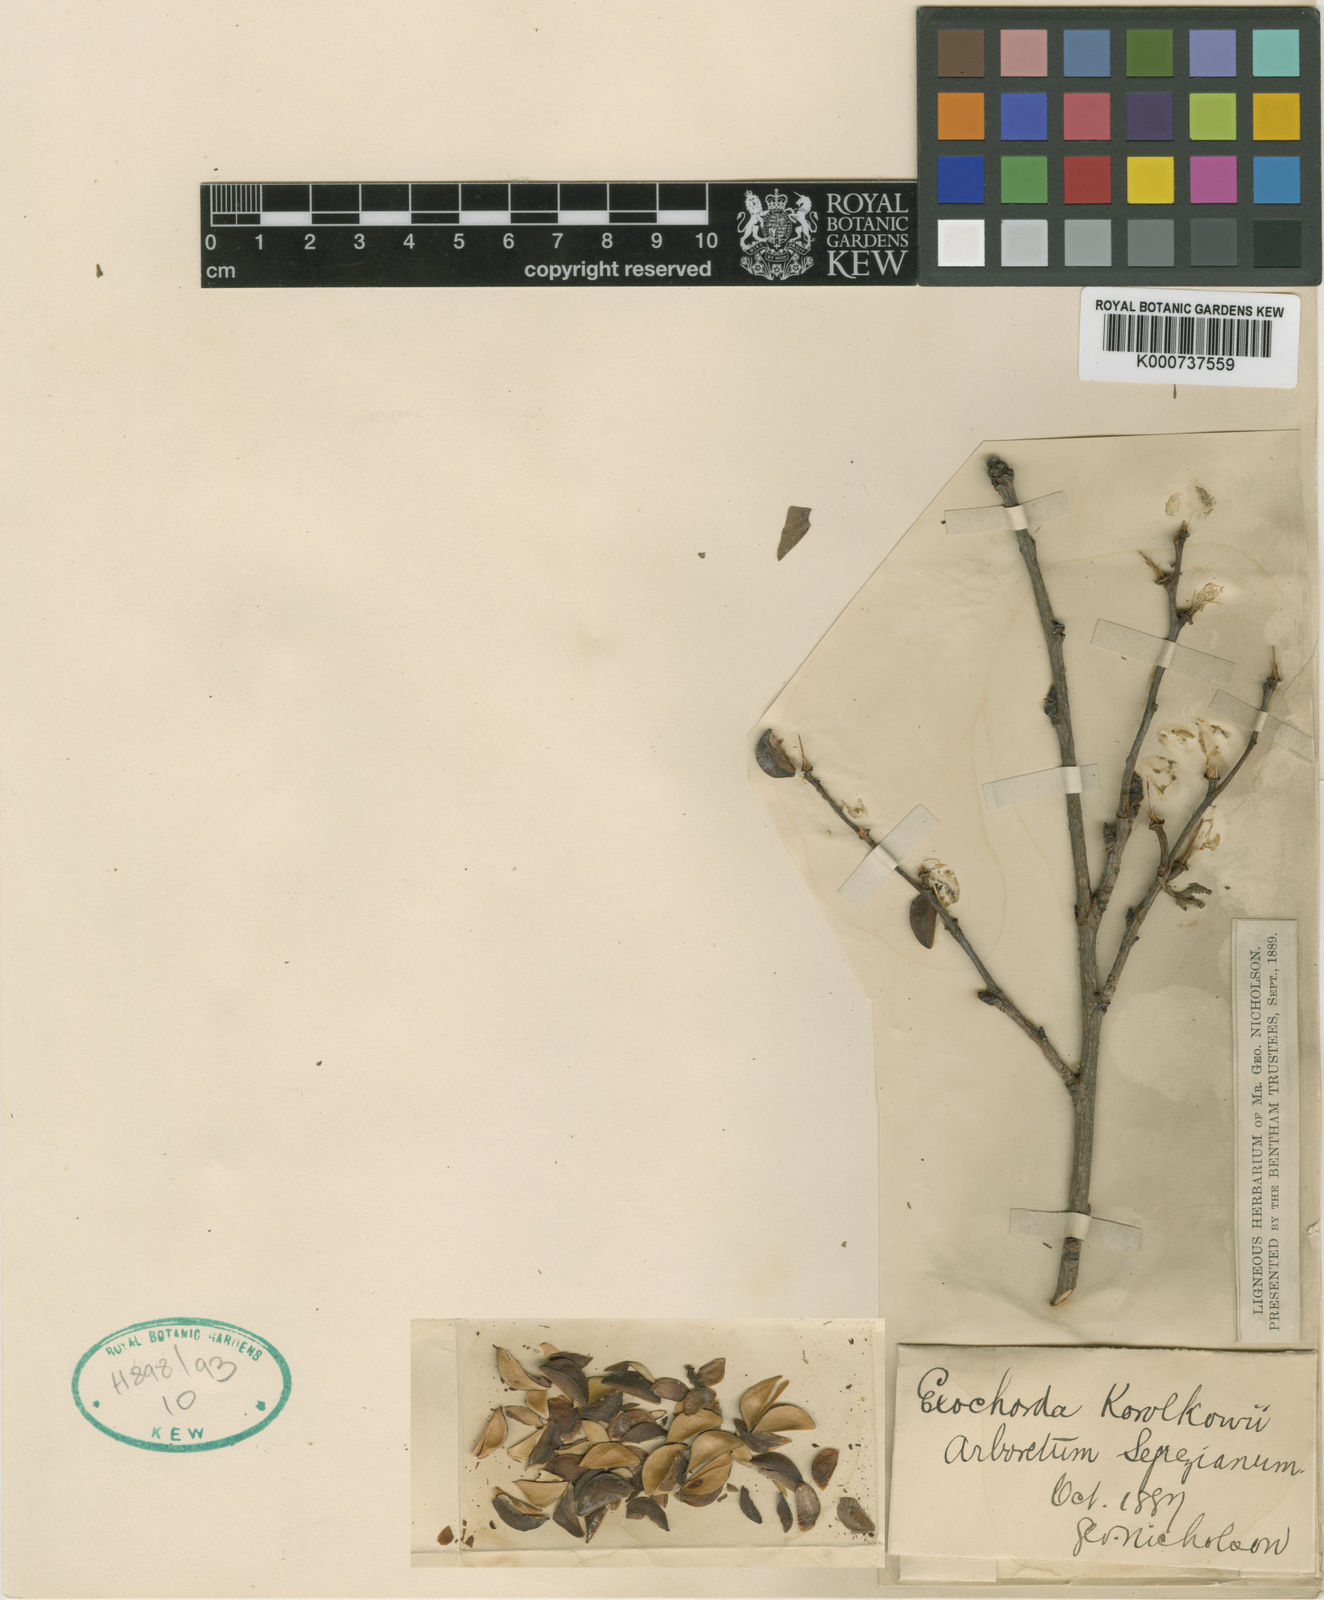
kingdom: Plantae
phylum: Tracheophyta
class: Magnoliopsida
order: Rosales
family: Rosaceae
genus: Exochorda
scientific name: Exochorda racemosa
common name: Common pearlbrush
